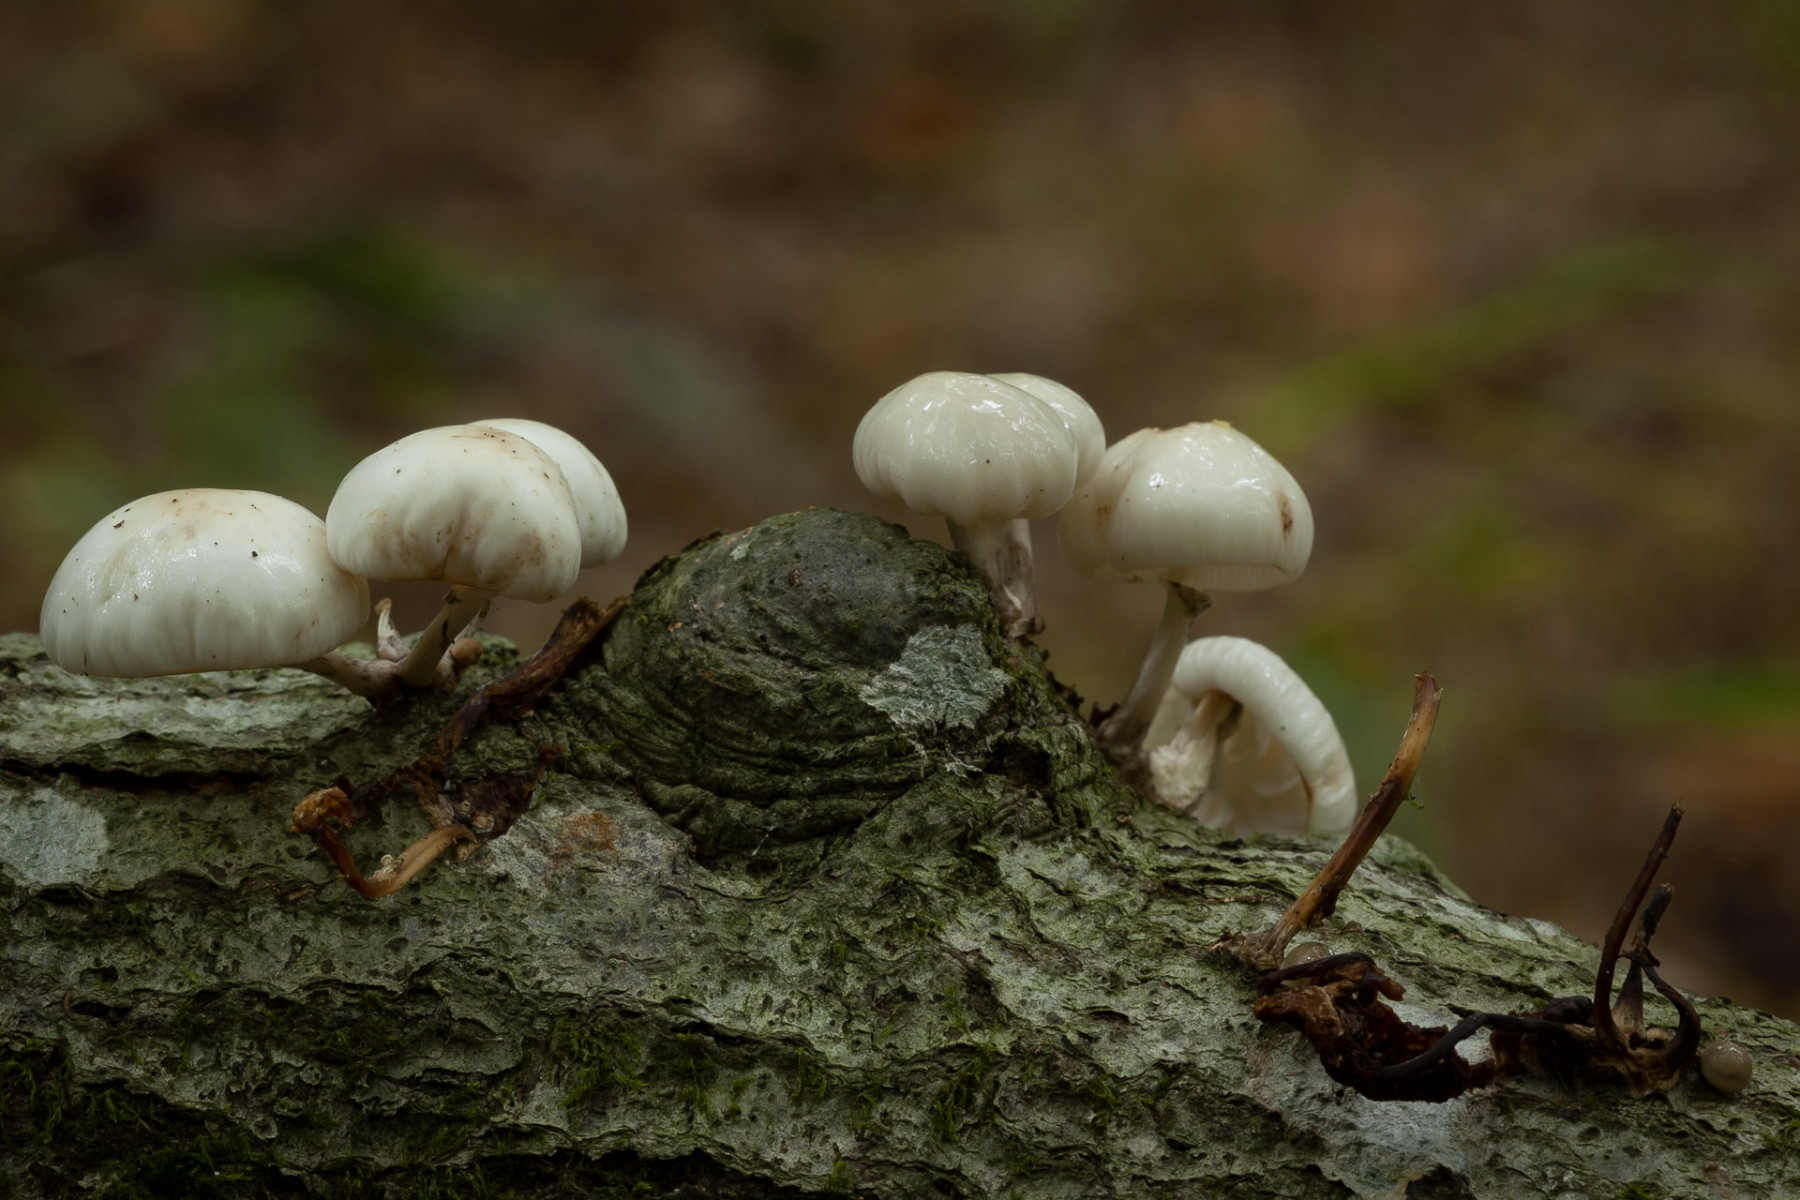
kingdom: Fungi
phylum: Basidiomycota
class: Agaricomycetes
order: Agaricales
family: Physalacriaceae
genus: Mucidula
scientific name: Mucidula mucida
